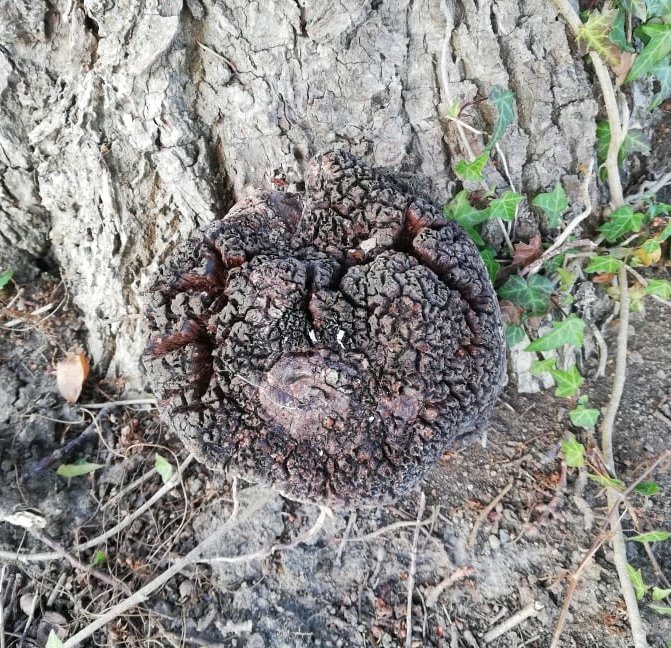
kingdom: Fungi
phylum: Basidiomycota
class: Agaricomycetes
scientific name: Agaricomycetes
